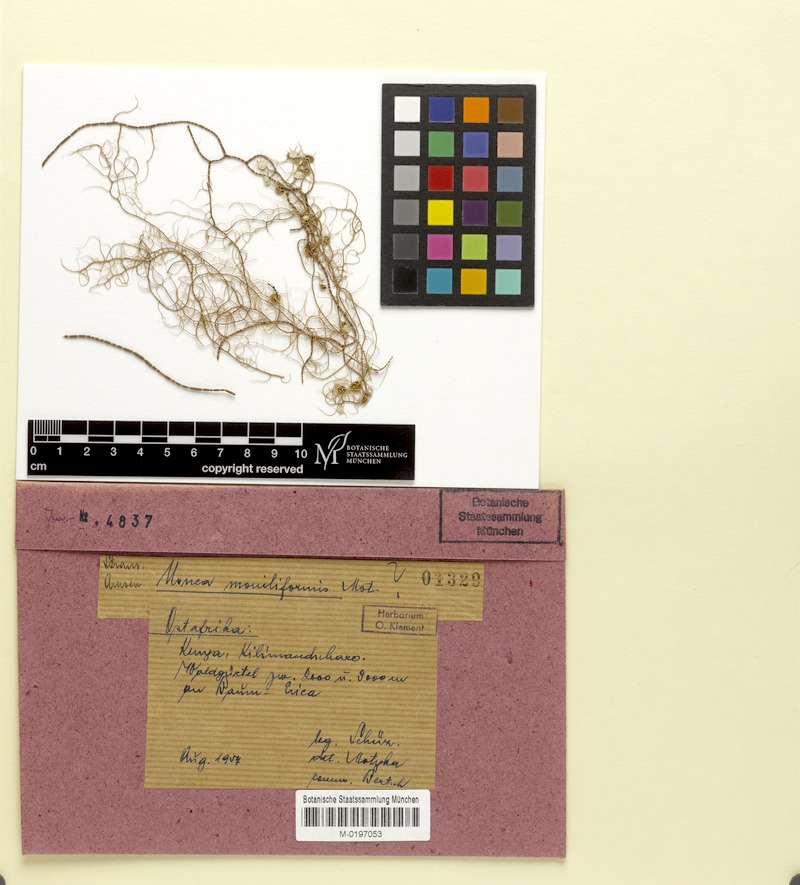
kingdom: Fungi
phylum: Ascomycota
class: Lecanoromycetes
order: Lecanorales
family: Parmeliaceae
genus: Usnea
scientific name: Usnea moniliformis
